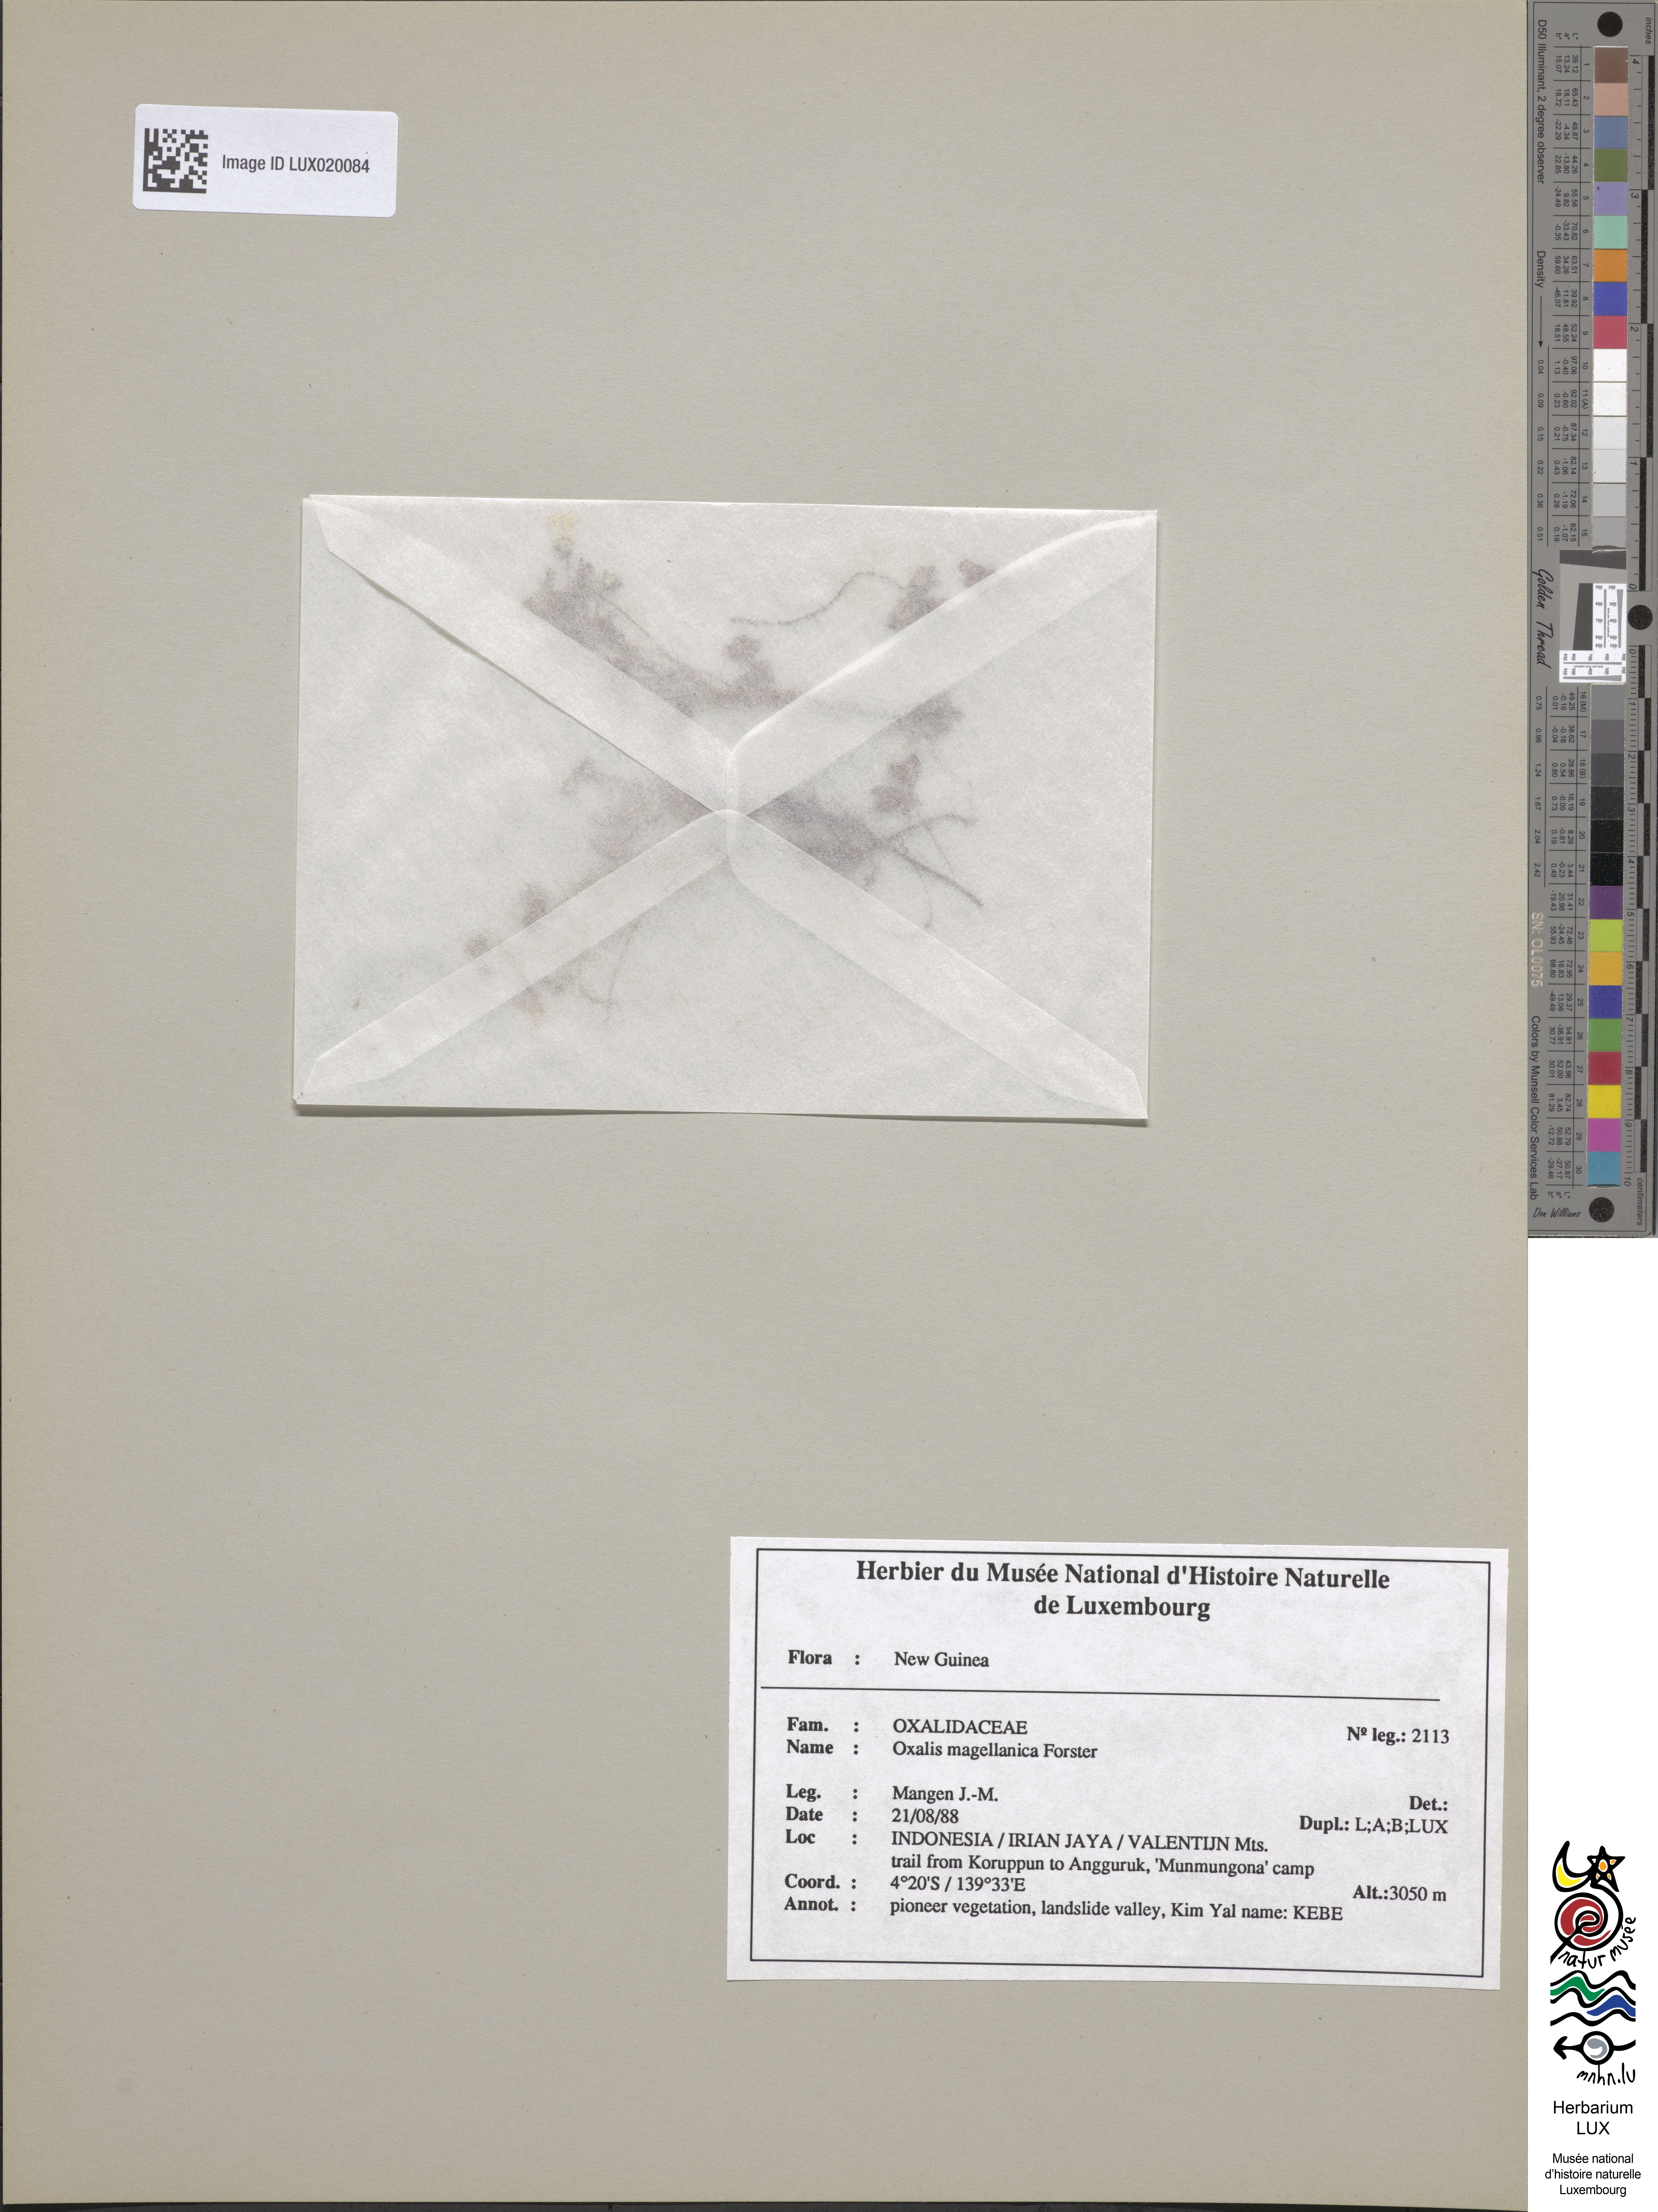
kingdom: Plantae
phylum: Tracheophyta
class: Magnoliopsida
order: Oxalidales
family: Oxalidaceae
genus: Oxalis
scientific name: Oxalis magellanica
